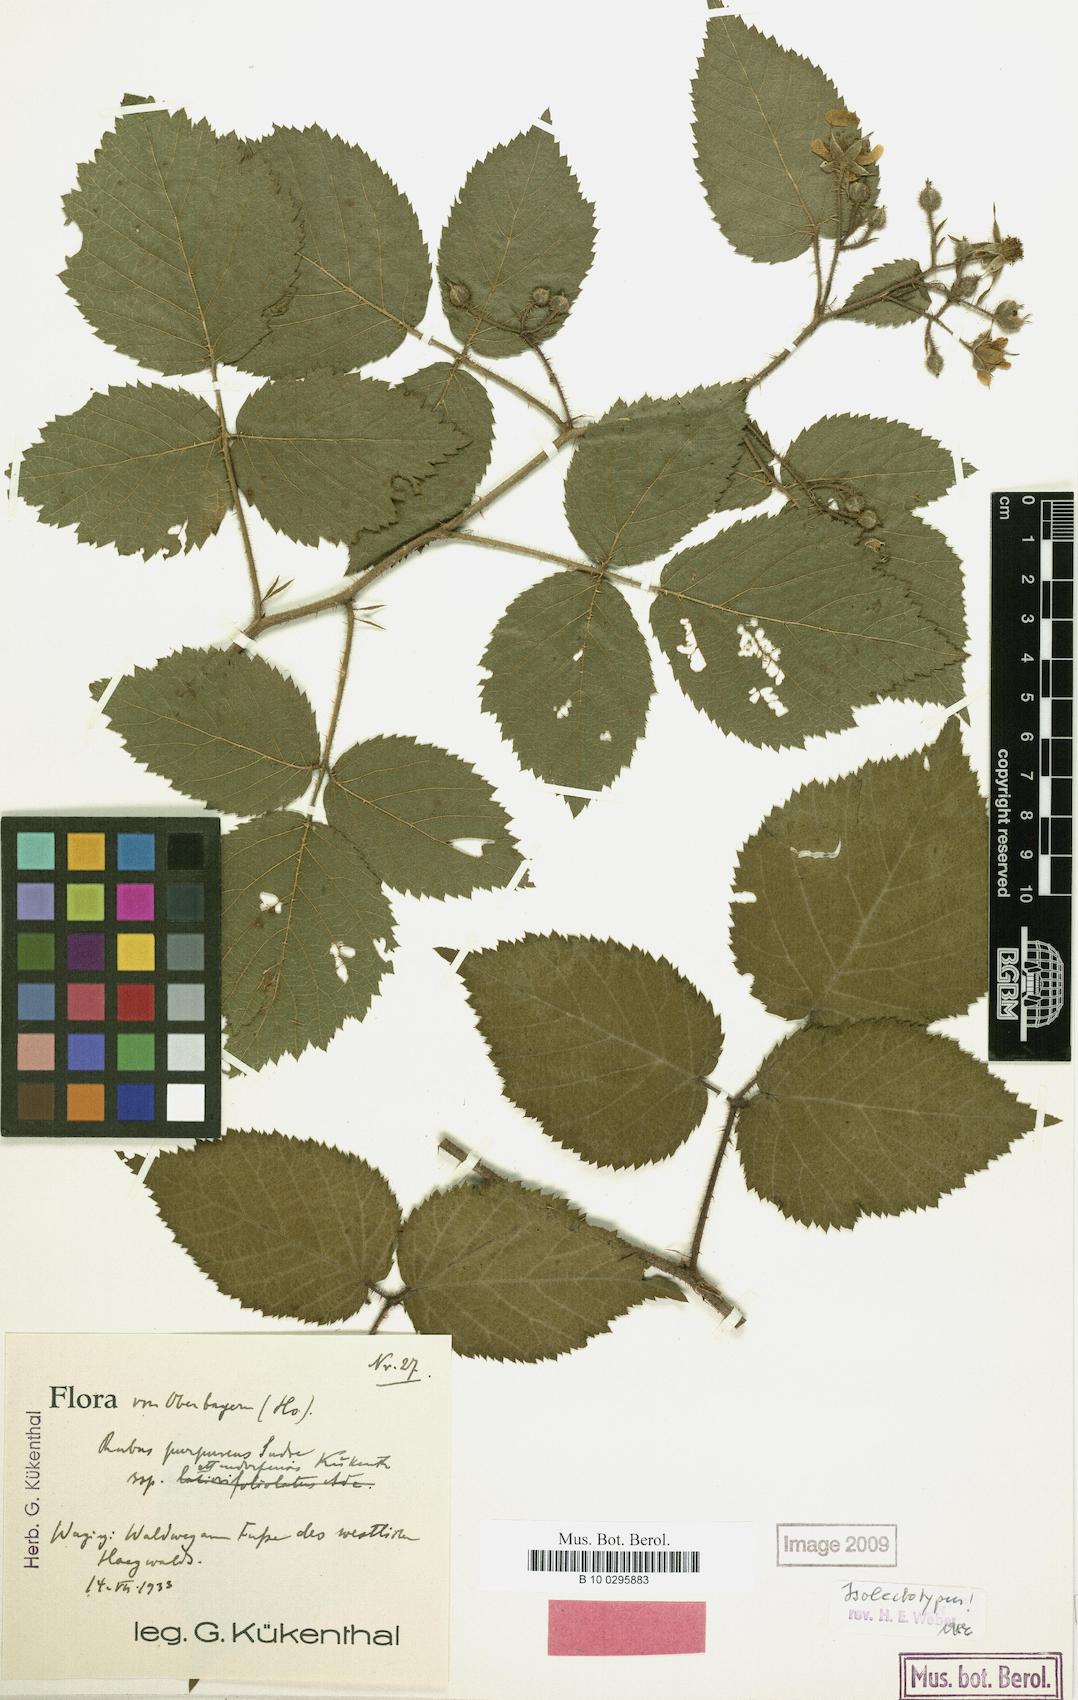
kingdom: Plantae
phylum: Tracheophyta
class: Magnoliopsida
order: Rosales
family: Rosaceae
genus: Rubus
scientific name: Rubus amoenus
